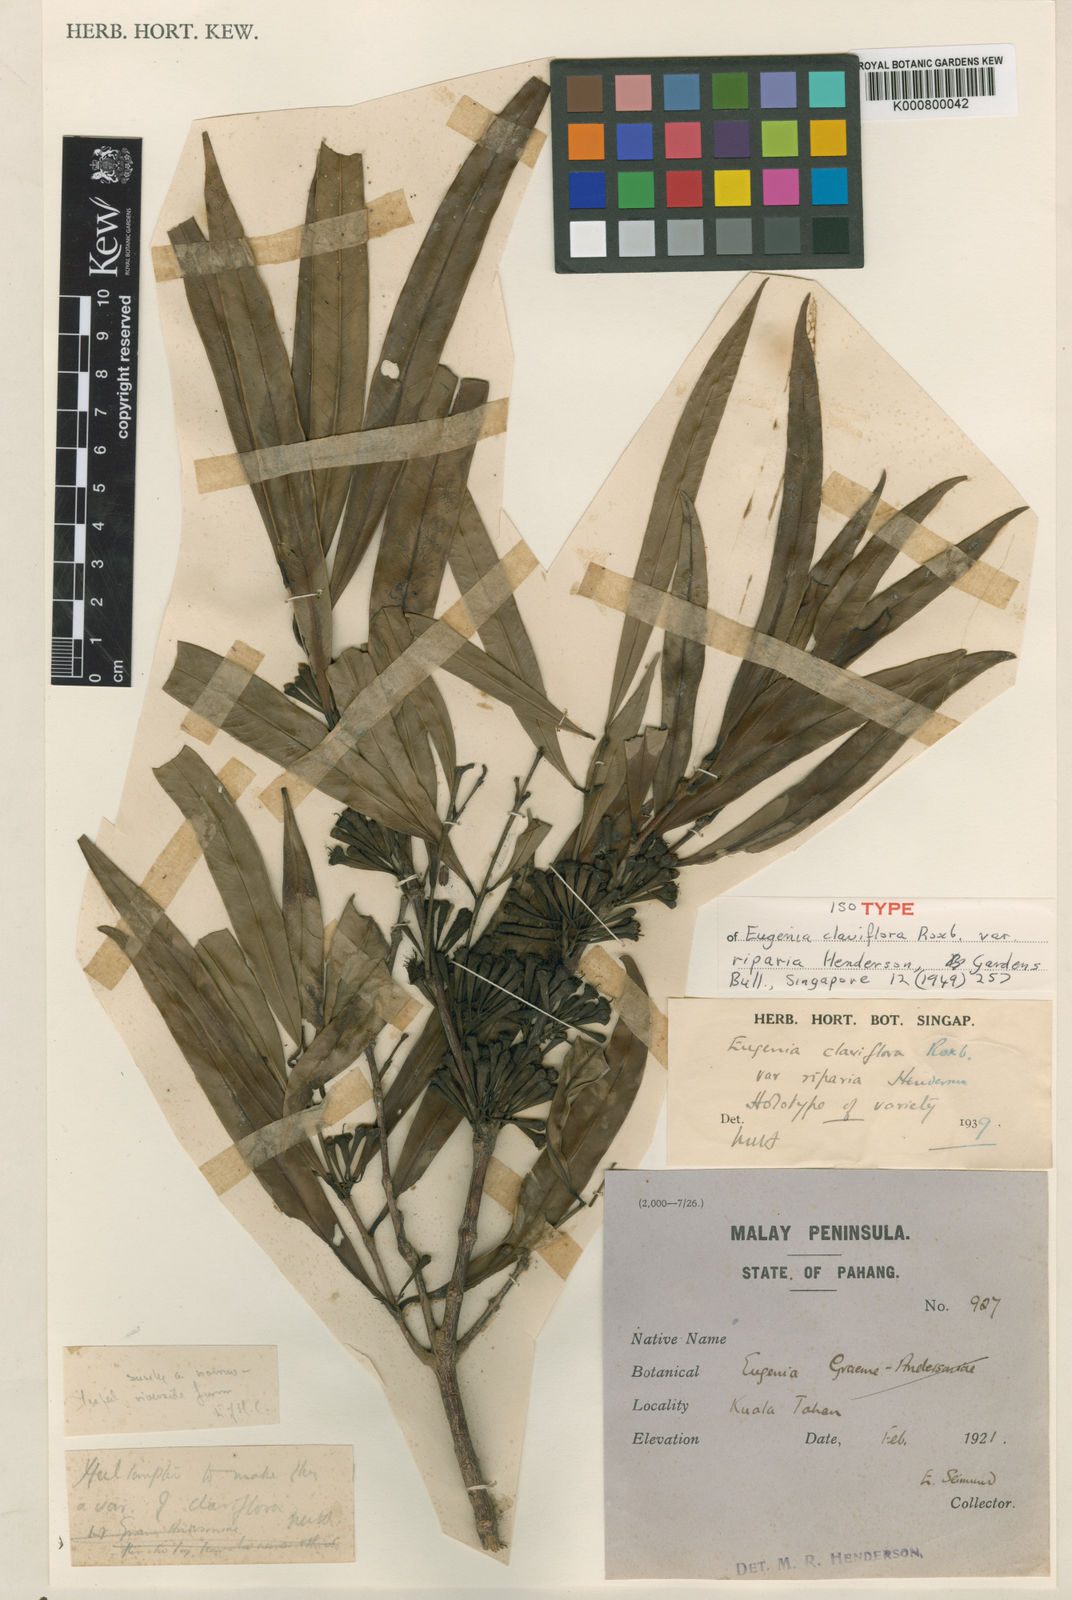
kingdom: Plantae
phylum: Tracheophyta
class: Magnoliopsida
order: Myrtales
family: Myrtaceae
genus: Syzygium
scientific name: Syzygium claviflorum
